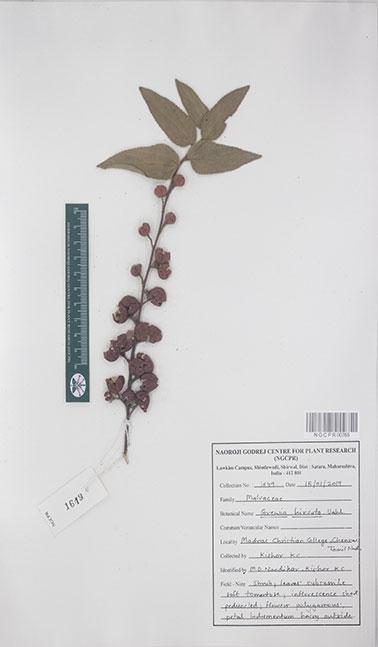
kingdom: Plantae
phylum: Tracheophyta
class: Magnoliopsida
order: Malvales
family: Malvaceae
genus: Grewia
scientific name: Grewia hirsuta
